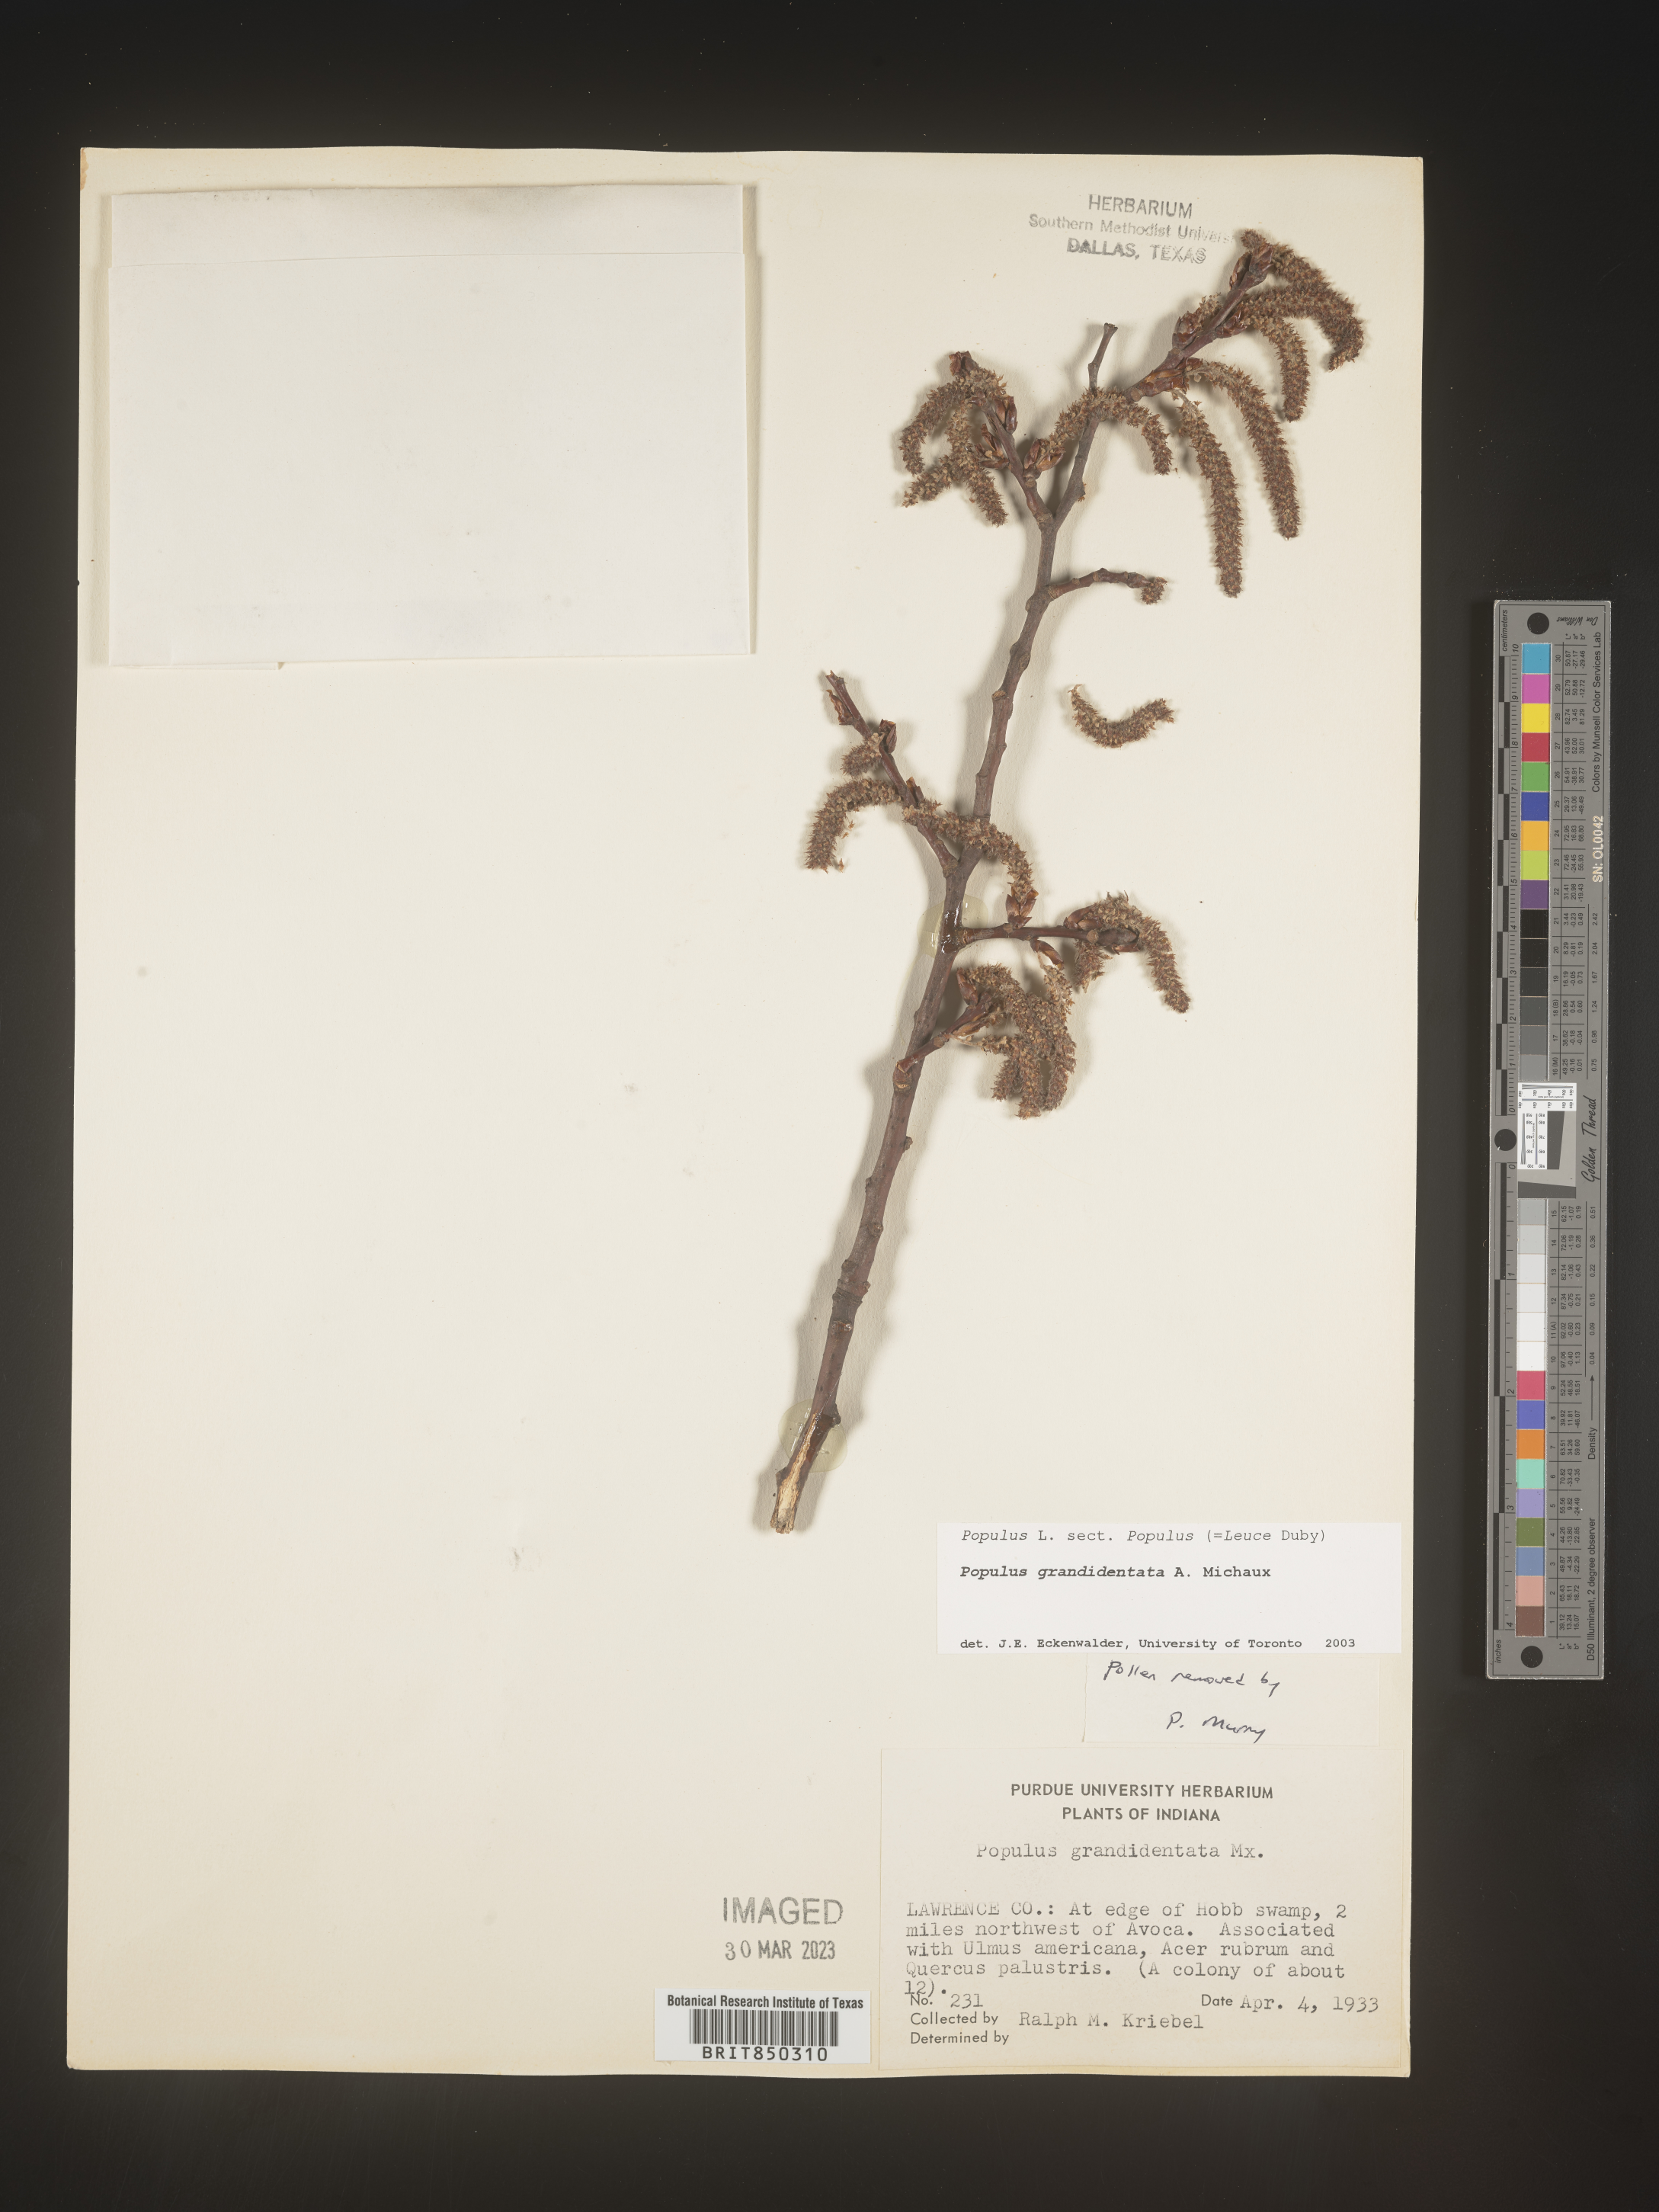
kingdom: Plantae
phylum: Tracheophyta
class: Magnoliopsida
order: Malpighiales
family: Salicaceae
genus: Populus
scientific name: Populus grandidentata
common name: Bigtooth aspen
